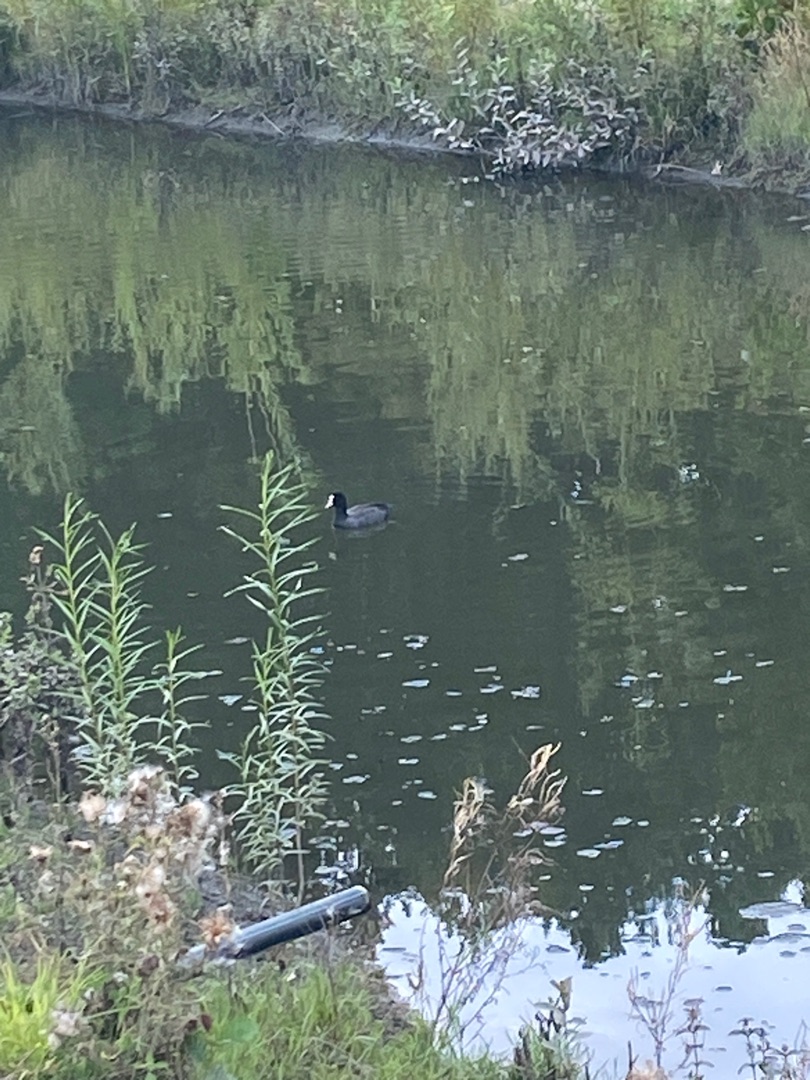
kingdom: Animalia
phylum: Chordata
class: Aves
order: Gruiformes
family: Rallidae
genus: Fulica
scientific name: Fulica atra
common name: Blishøne
